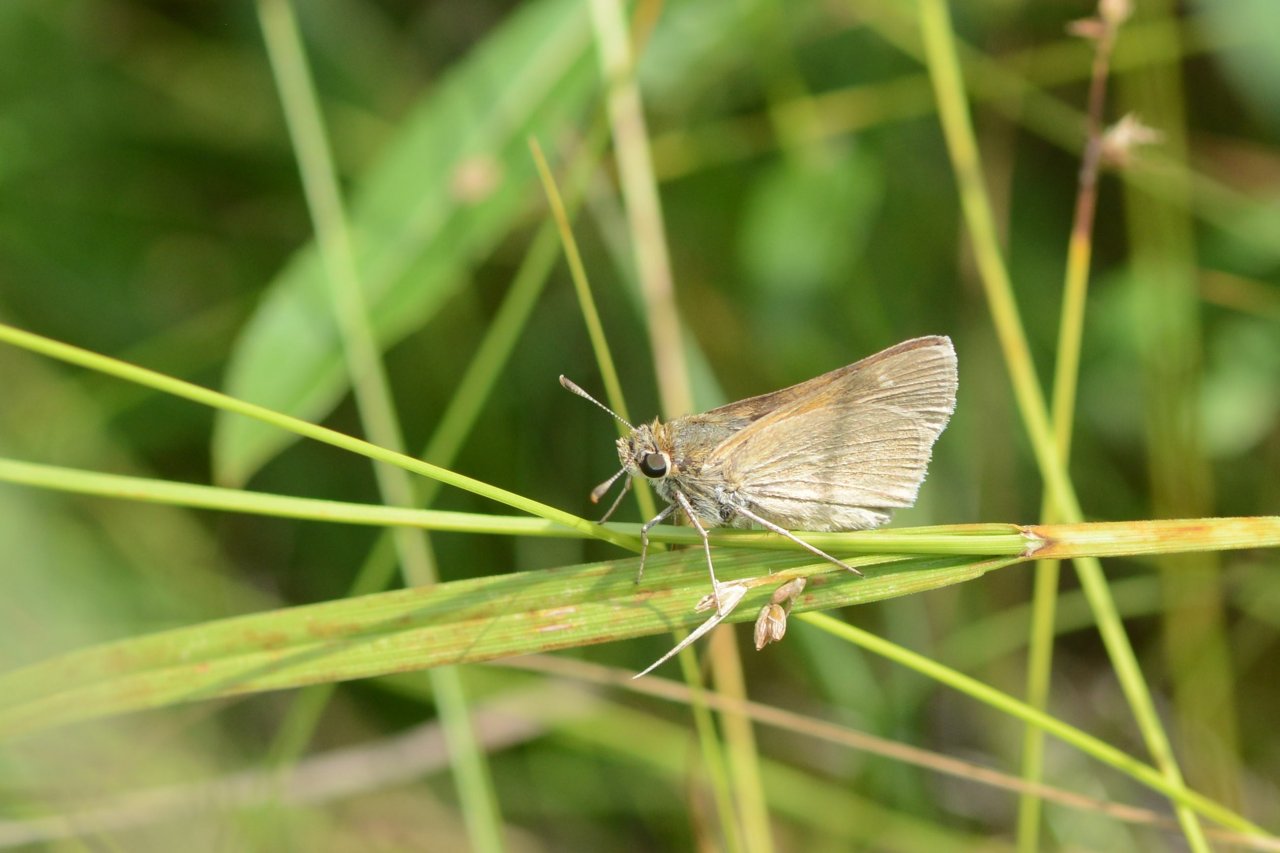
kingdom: Animalia
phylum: Arthropoda
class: Insecta
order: Lepidoptera
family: Hesperiidae
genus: Polites
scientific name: Polites
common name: Crossline Skipper
